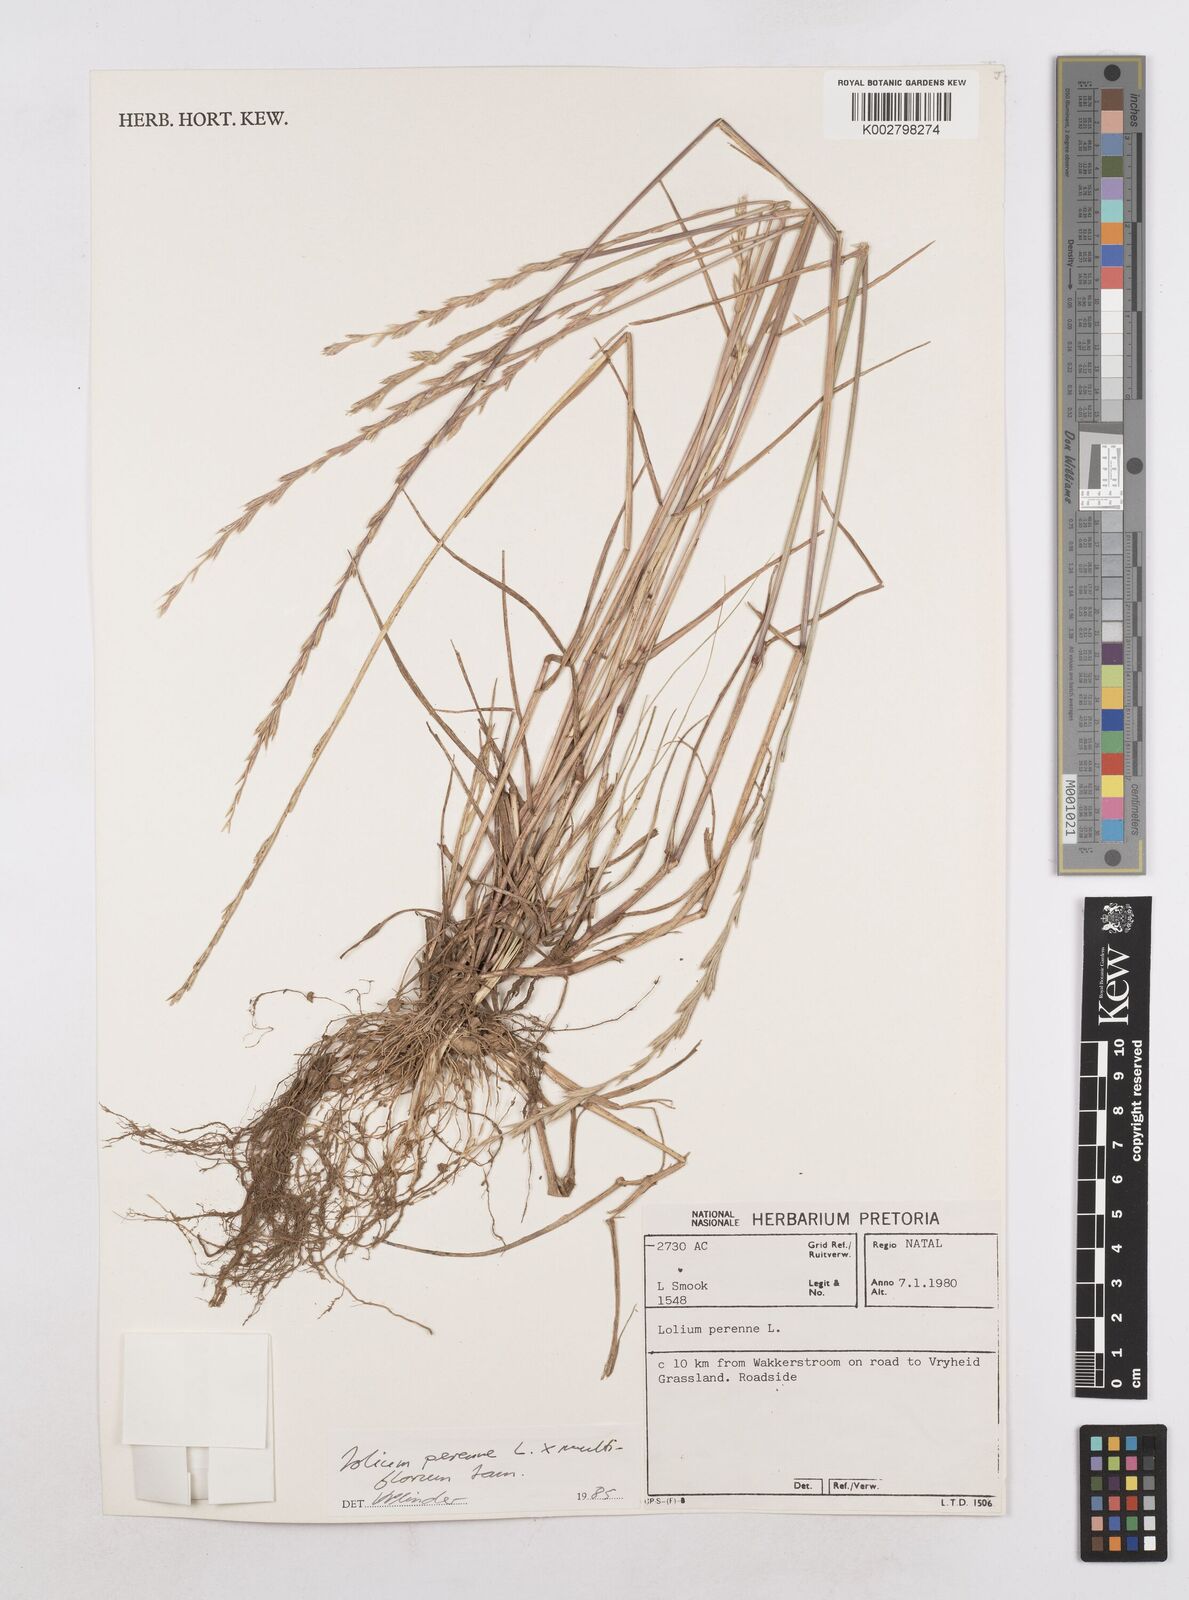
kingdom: Plantae
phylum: Tracheophyta
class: Liliopsida
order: Poales
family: Poaceae
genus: Lolium
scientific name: Lolium multiflorum
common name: Annual ryegrass
